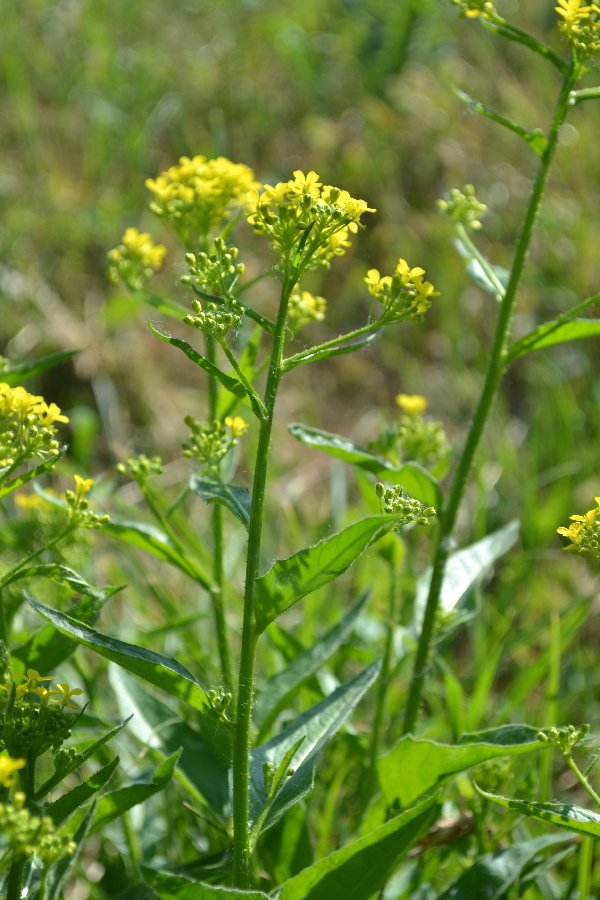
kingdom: Plantae
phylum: Tracheophyta
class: Magnoliopsida
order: Brassicales
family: Brassicaceae
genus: Barbarea
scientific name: Barbarea vulgaris
